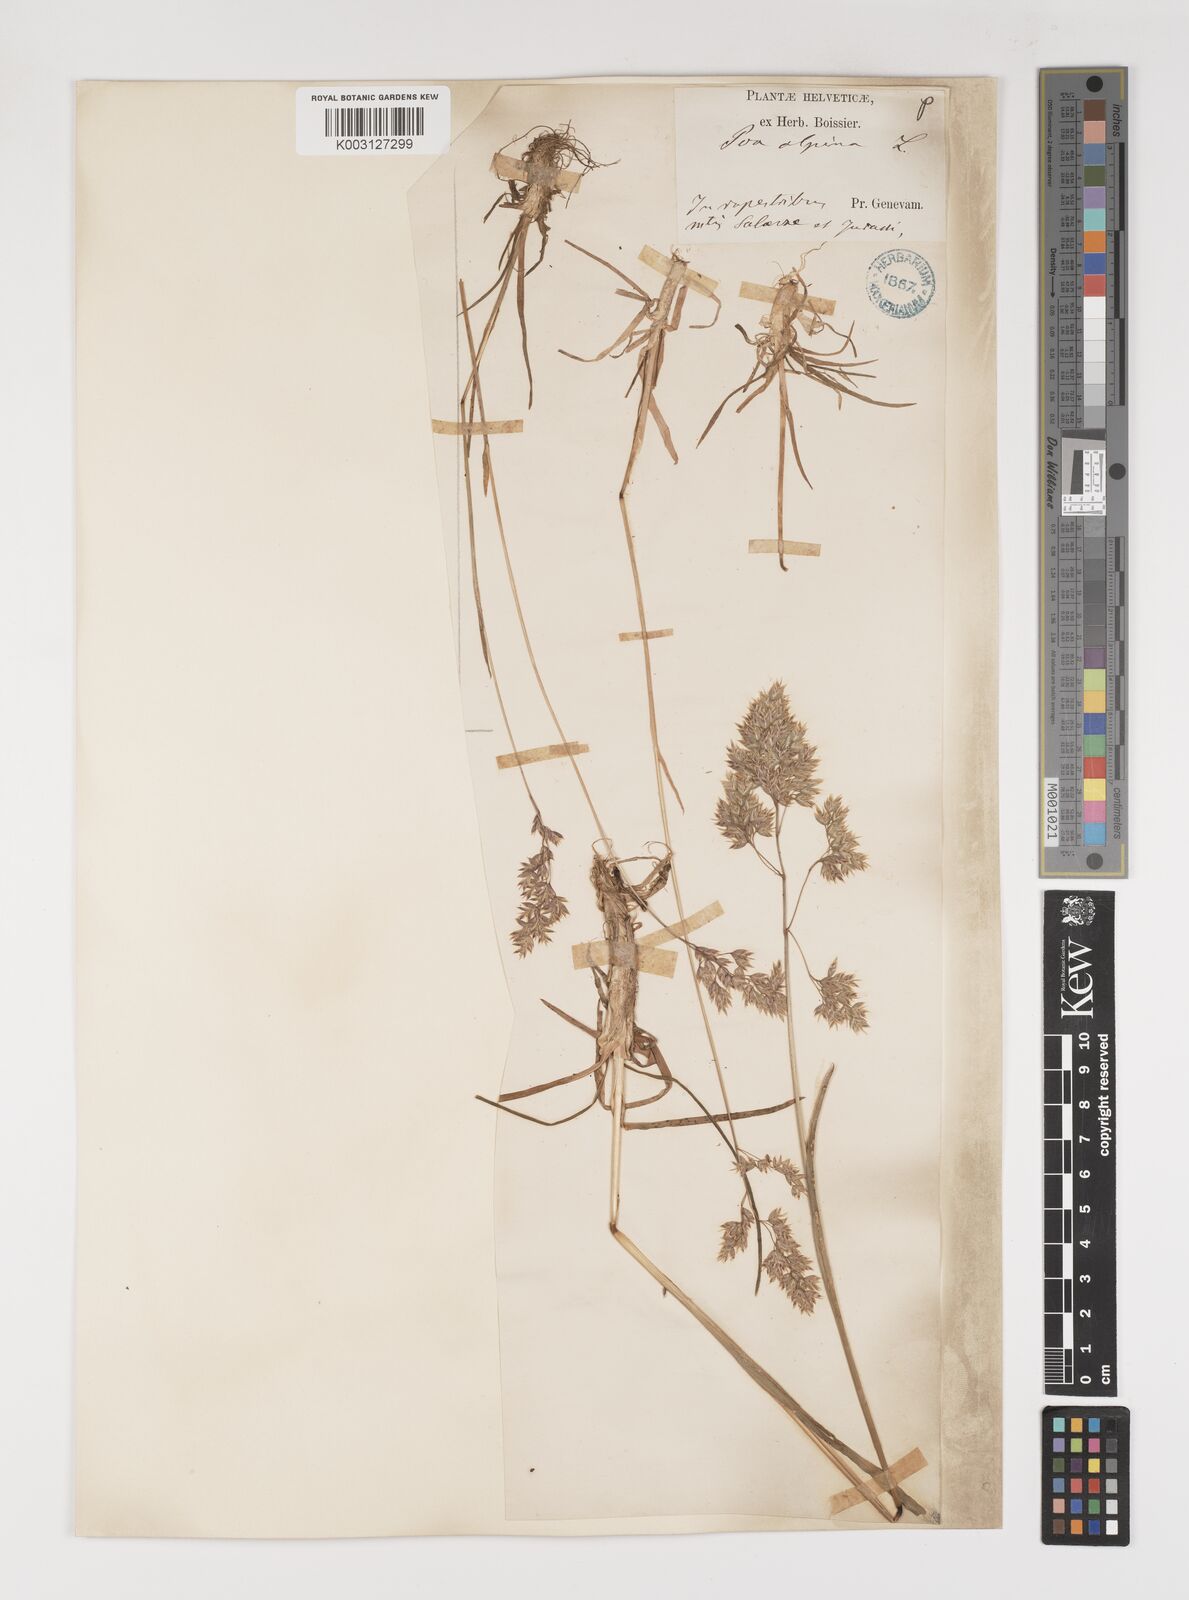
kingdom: Plantae
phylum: Tracheophyta
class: Liliopsida
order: Poales
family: Poaceae
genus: Poa
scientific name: Poa alpina
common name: Alpine bluegrass
